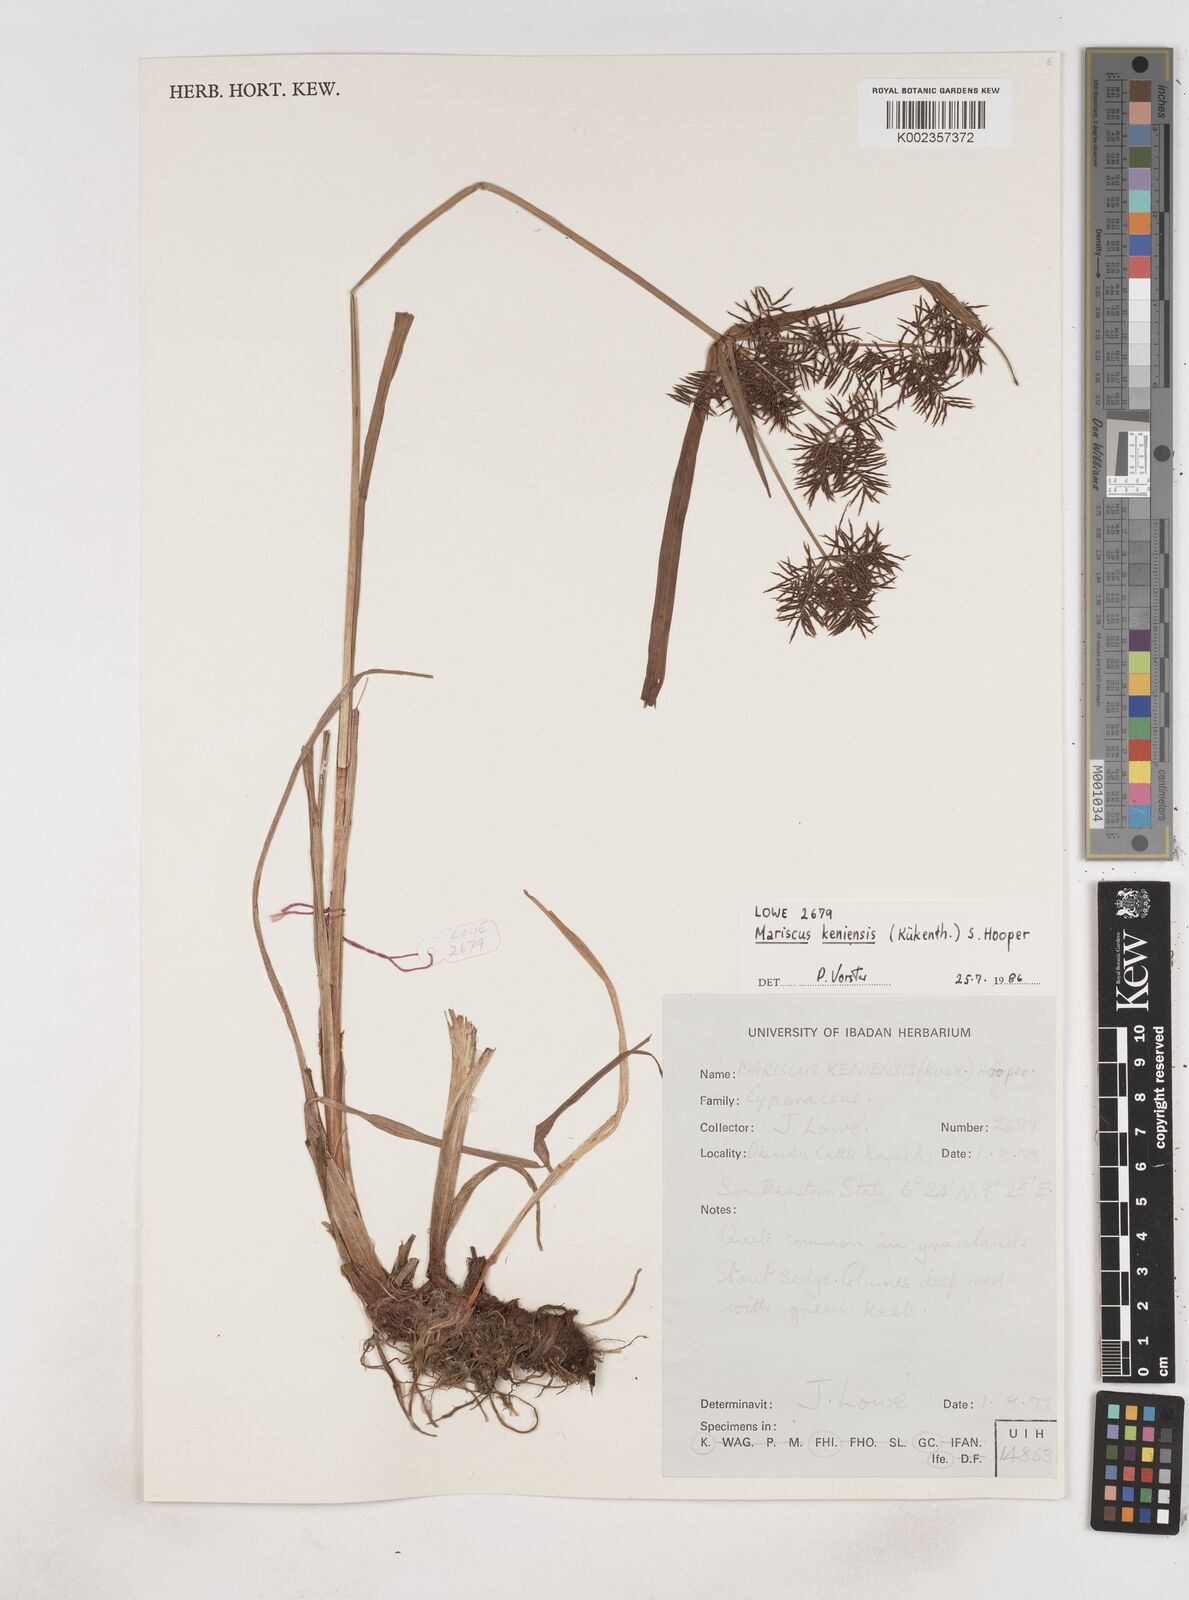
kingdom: Plantae
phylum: Tracheophyta
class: Liliopsida
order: Poales
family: Cyperaceae
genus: Cyperus
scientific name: Cyperus distans
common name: Slender cyperus
